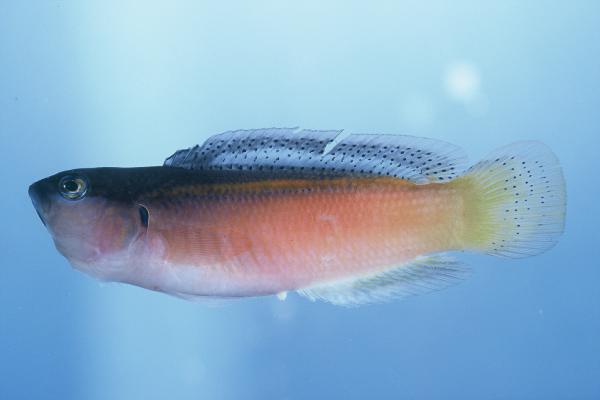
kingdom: Animalia
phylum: Chordata
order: Perciformes
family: Pseudochromidae
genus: Pseudochromis
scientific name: Pseudochromis melas
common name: Dark dottyback
